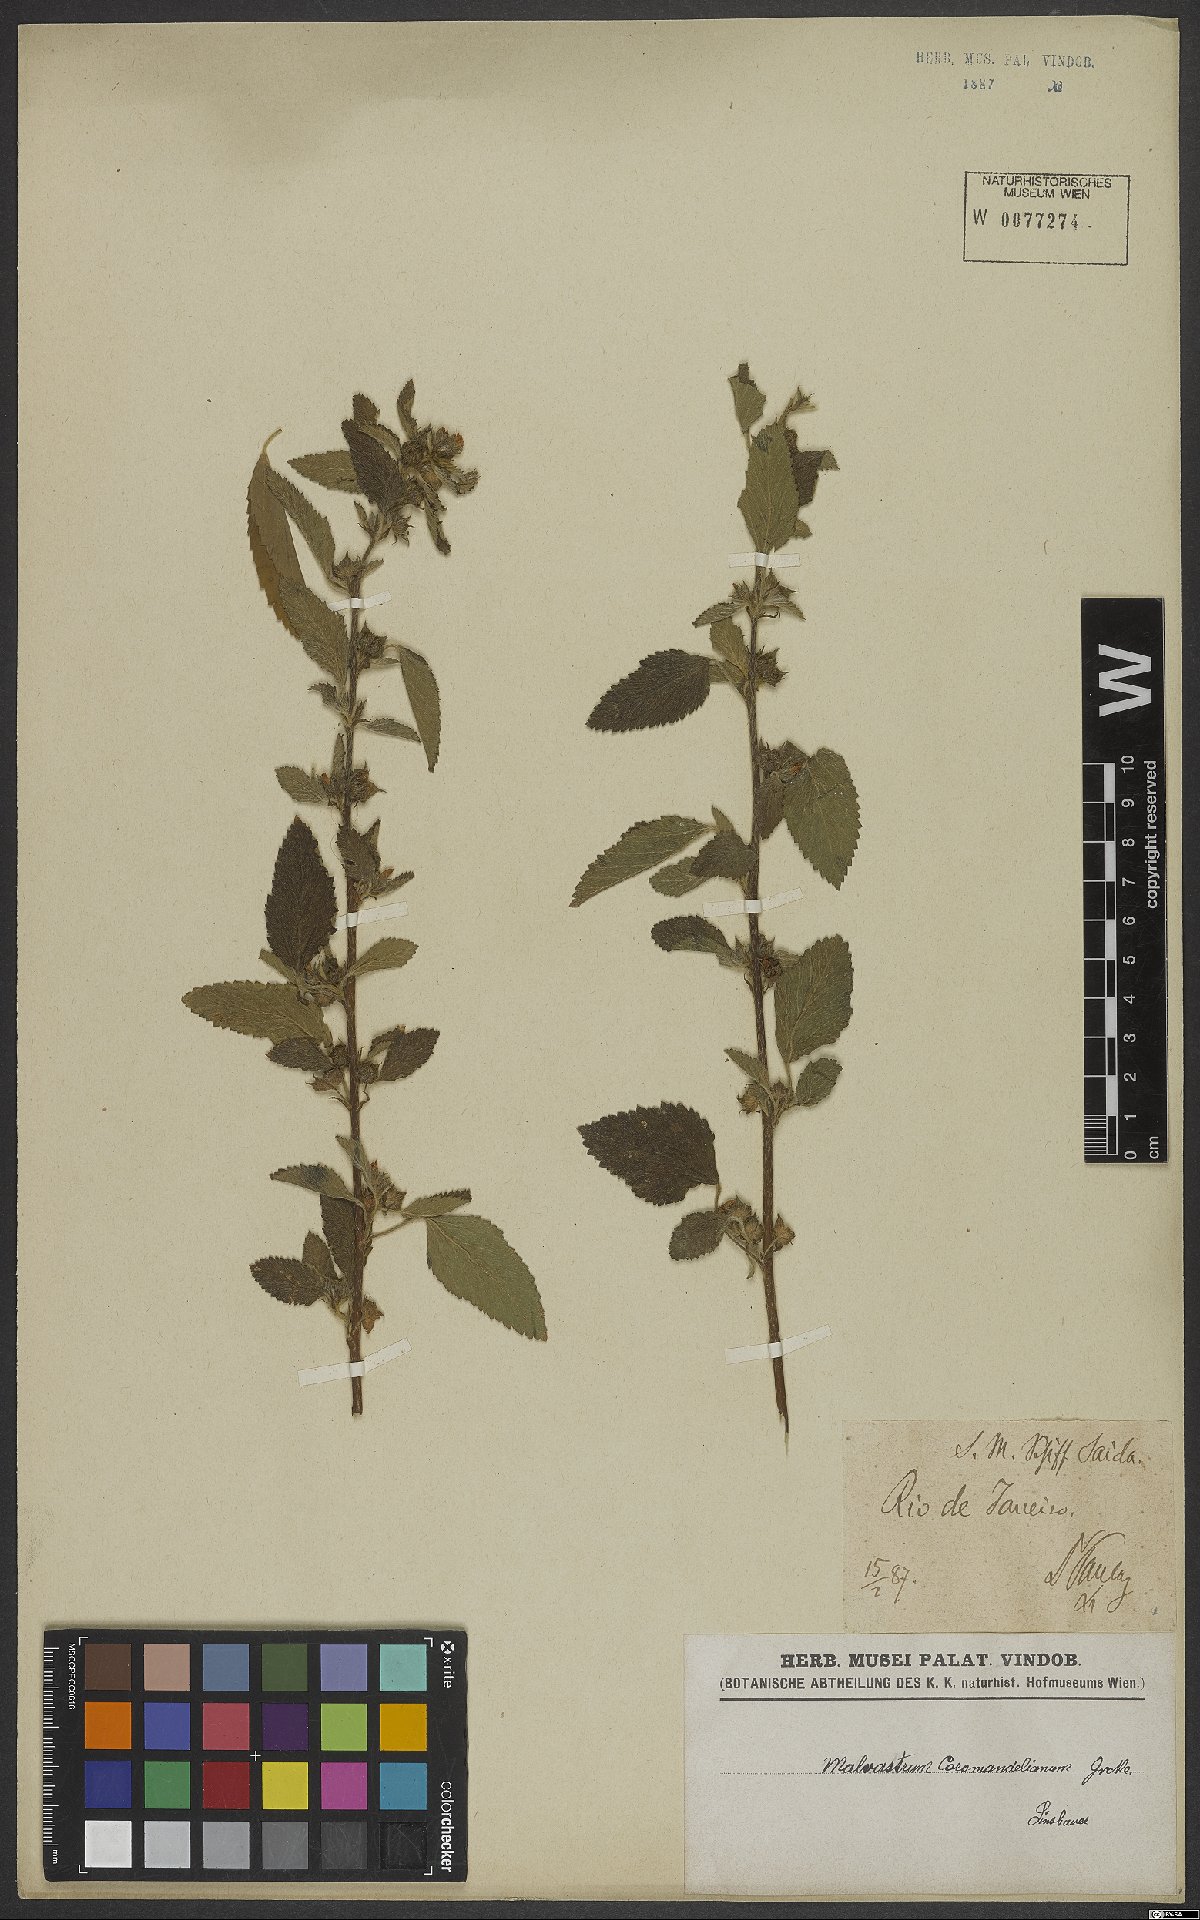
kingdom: Plantae
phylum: Tracheophyta
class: Magnoliopsida
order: Malvales
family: Malvaceae
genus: Malvastrum
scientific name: Malvastrum coromandelianum
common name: Threelobe false mallow
